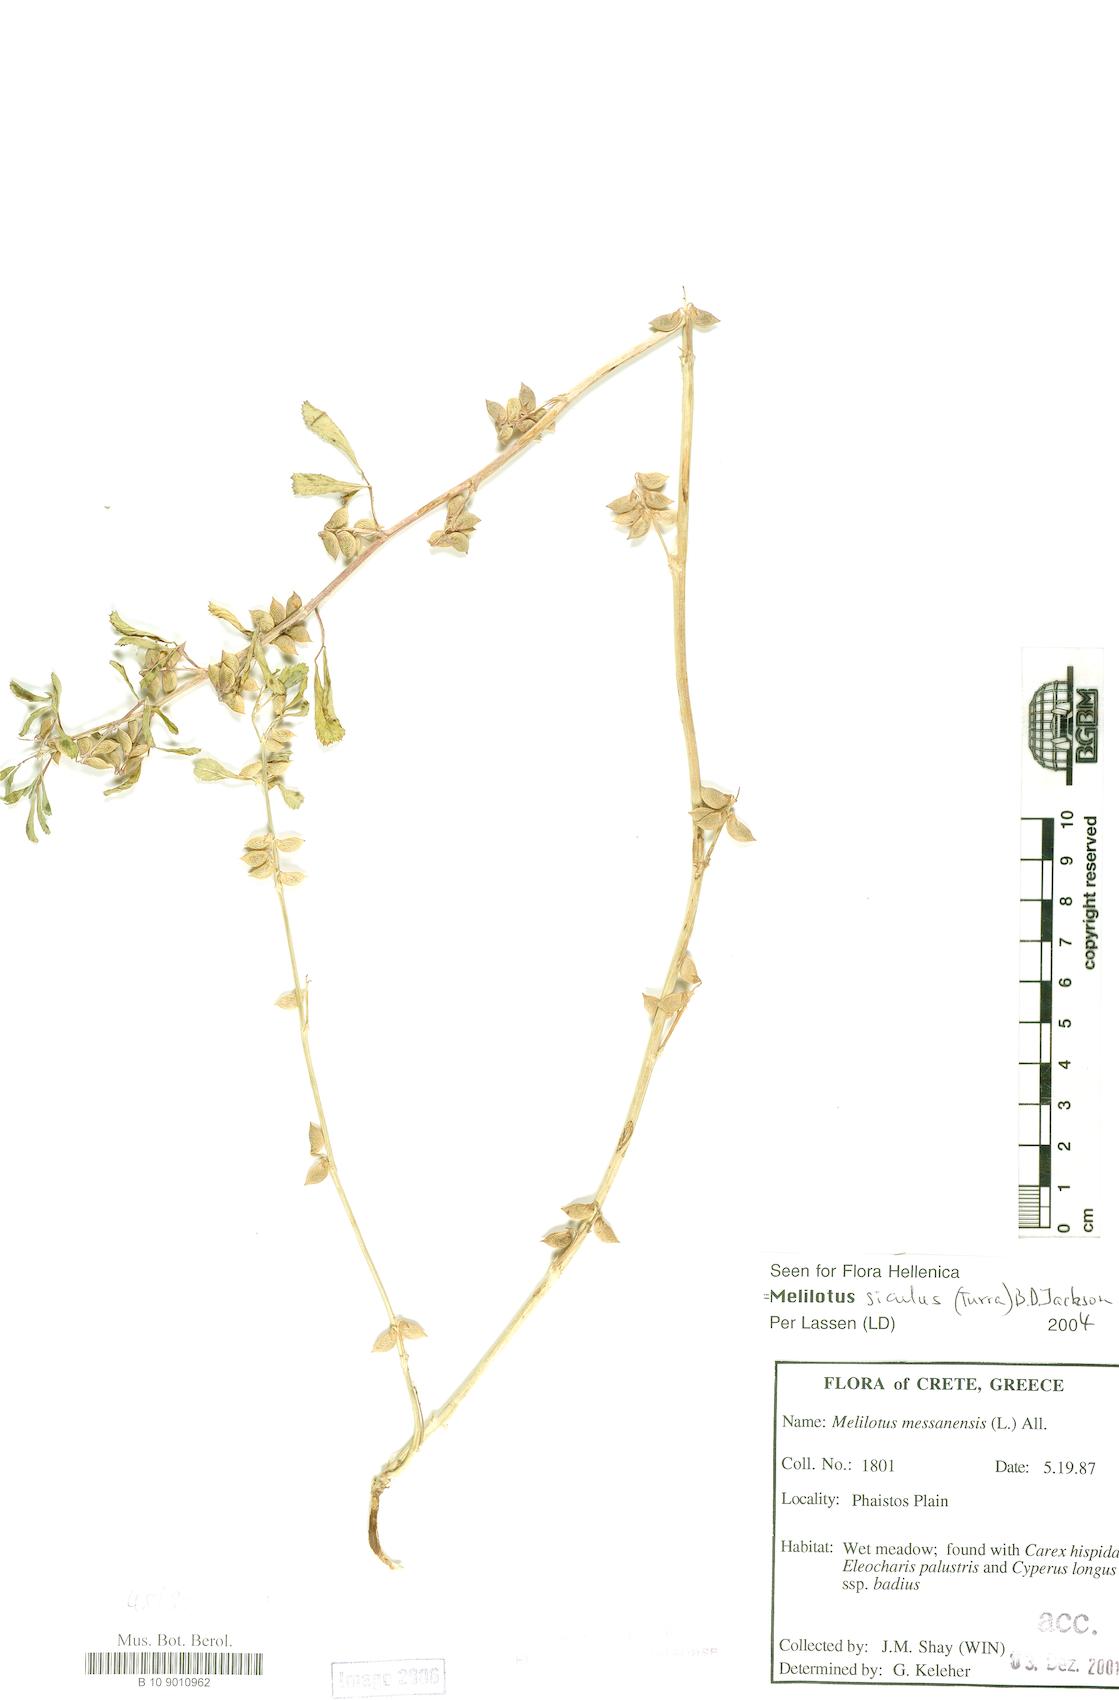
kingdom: Plantae
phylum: Tracheophyta
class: Magnoliopsida
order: Fabales
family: Fabaceae
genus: Melilotus
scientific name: Melilotus siculus
